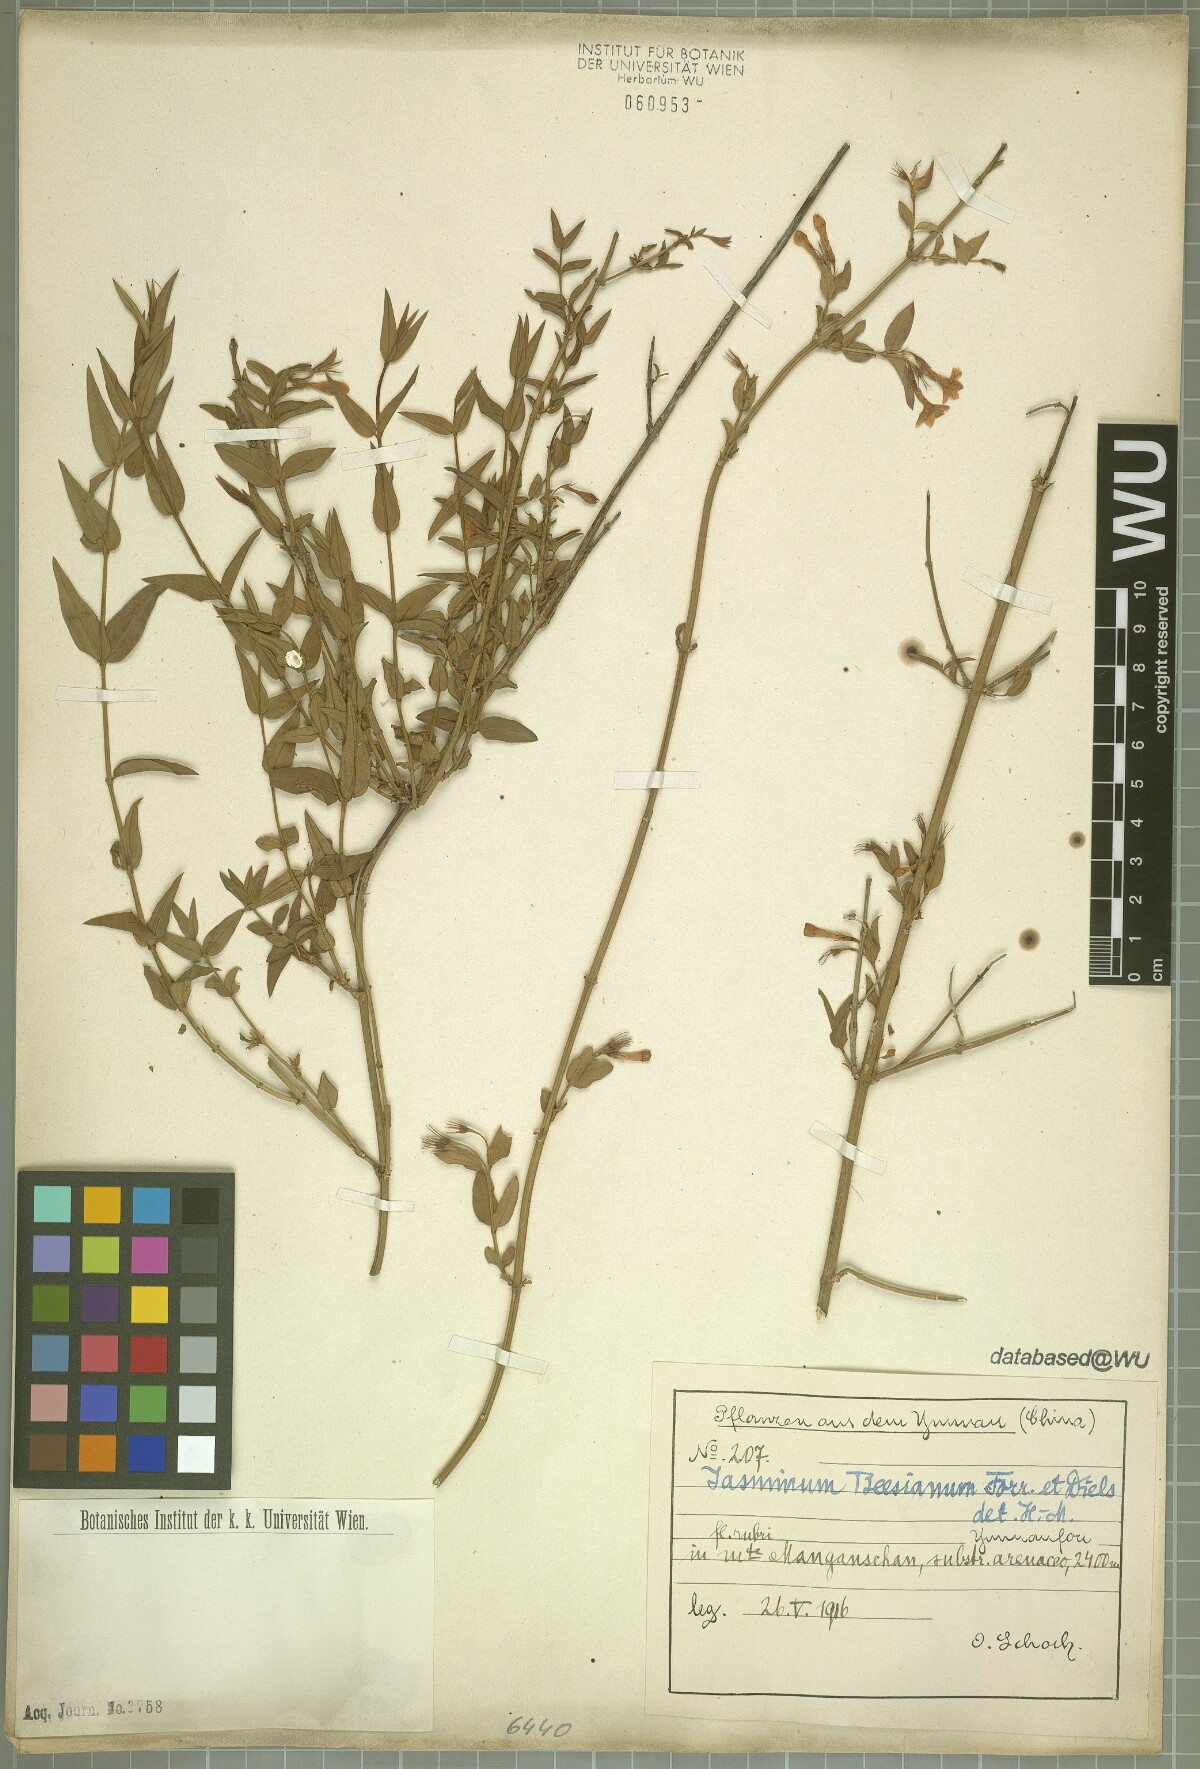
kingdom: Plantae
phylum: Tracheophyta
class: Magnoliopsida
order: Lamiales
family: Oleaceae
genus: Jasminum
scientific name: Jasminum beesianum
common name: Red jasmine
